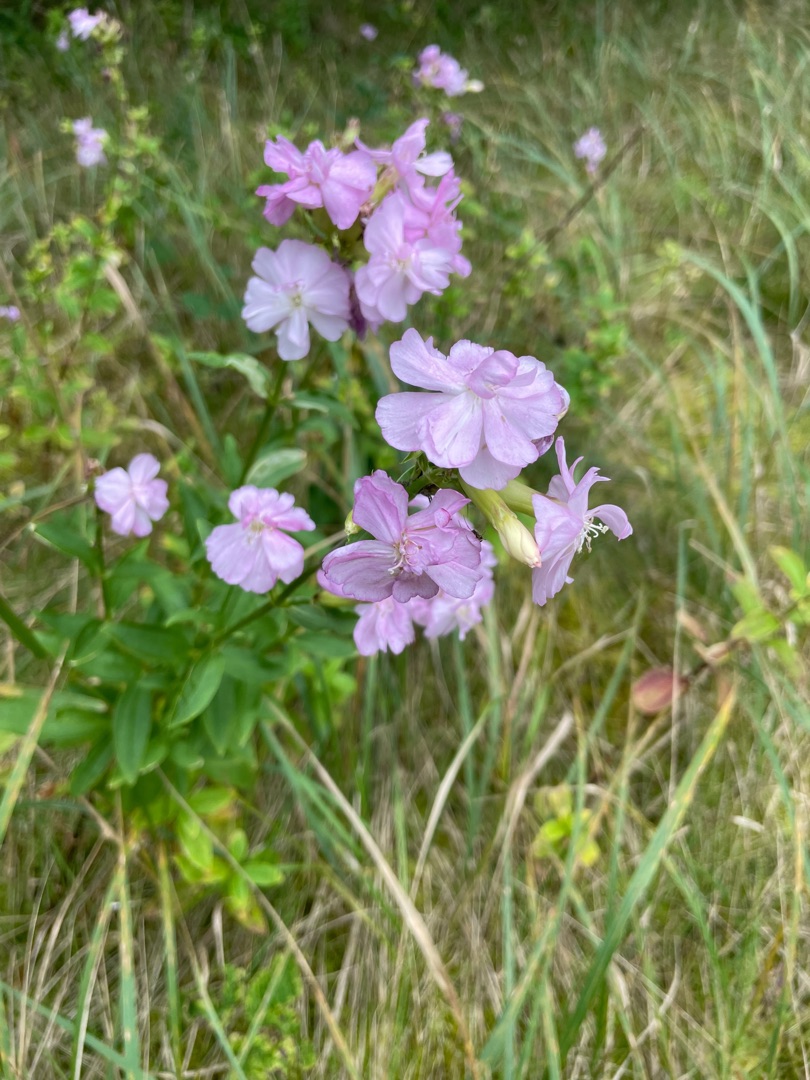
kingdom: Plantae
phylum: Tracheophyta
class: Magnoliopsida
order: Caryophyllales
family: Caryophyllaceae
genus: Saponaria
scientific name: Saponaria officinalis
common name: Sæbeurt
